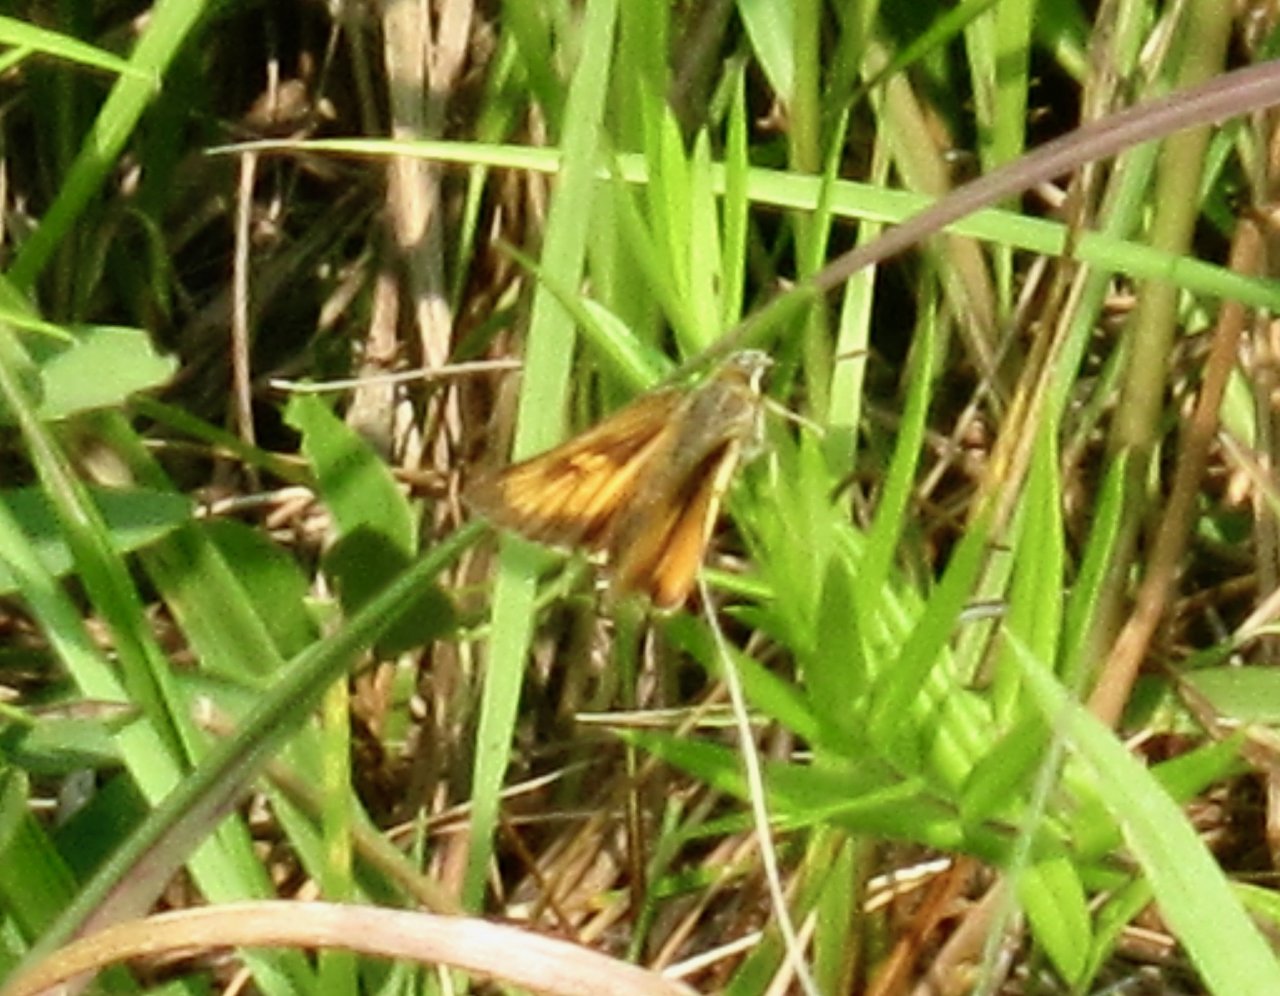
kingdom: Animalia
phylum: Arthropoda
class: Insecta
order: Lepidoptera
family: Hesperiidae
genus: Atrytone
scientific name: Atrytone delaware
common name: Delaware Skipper
